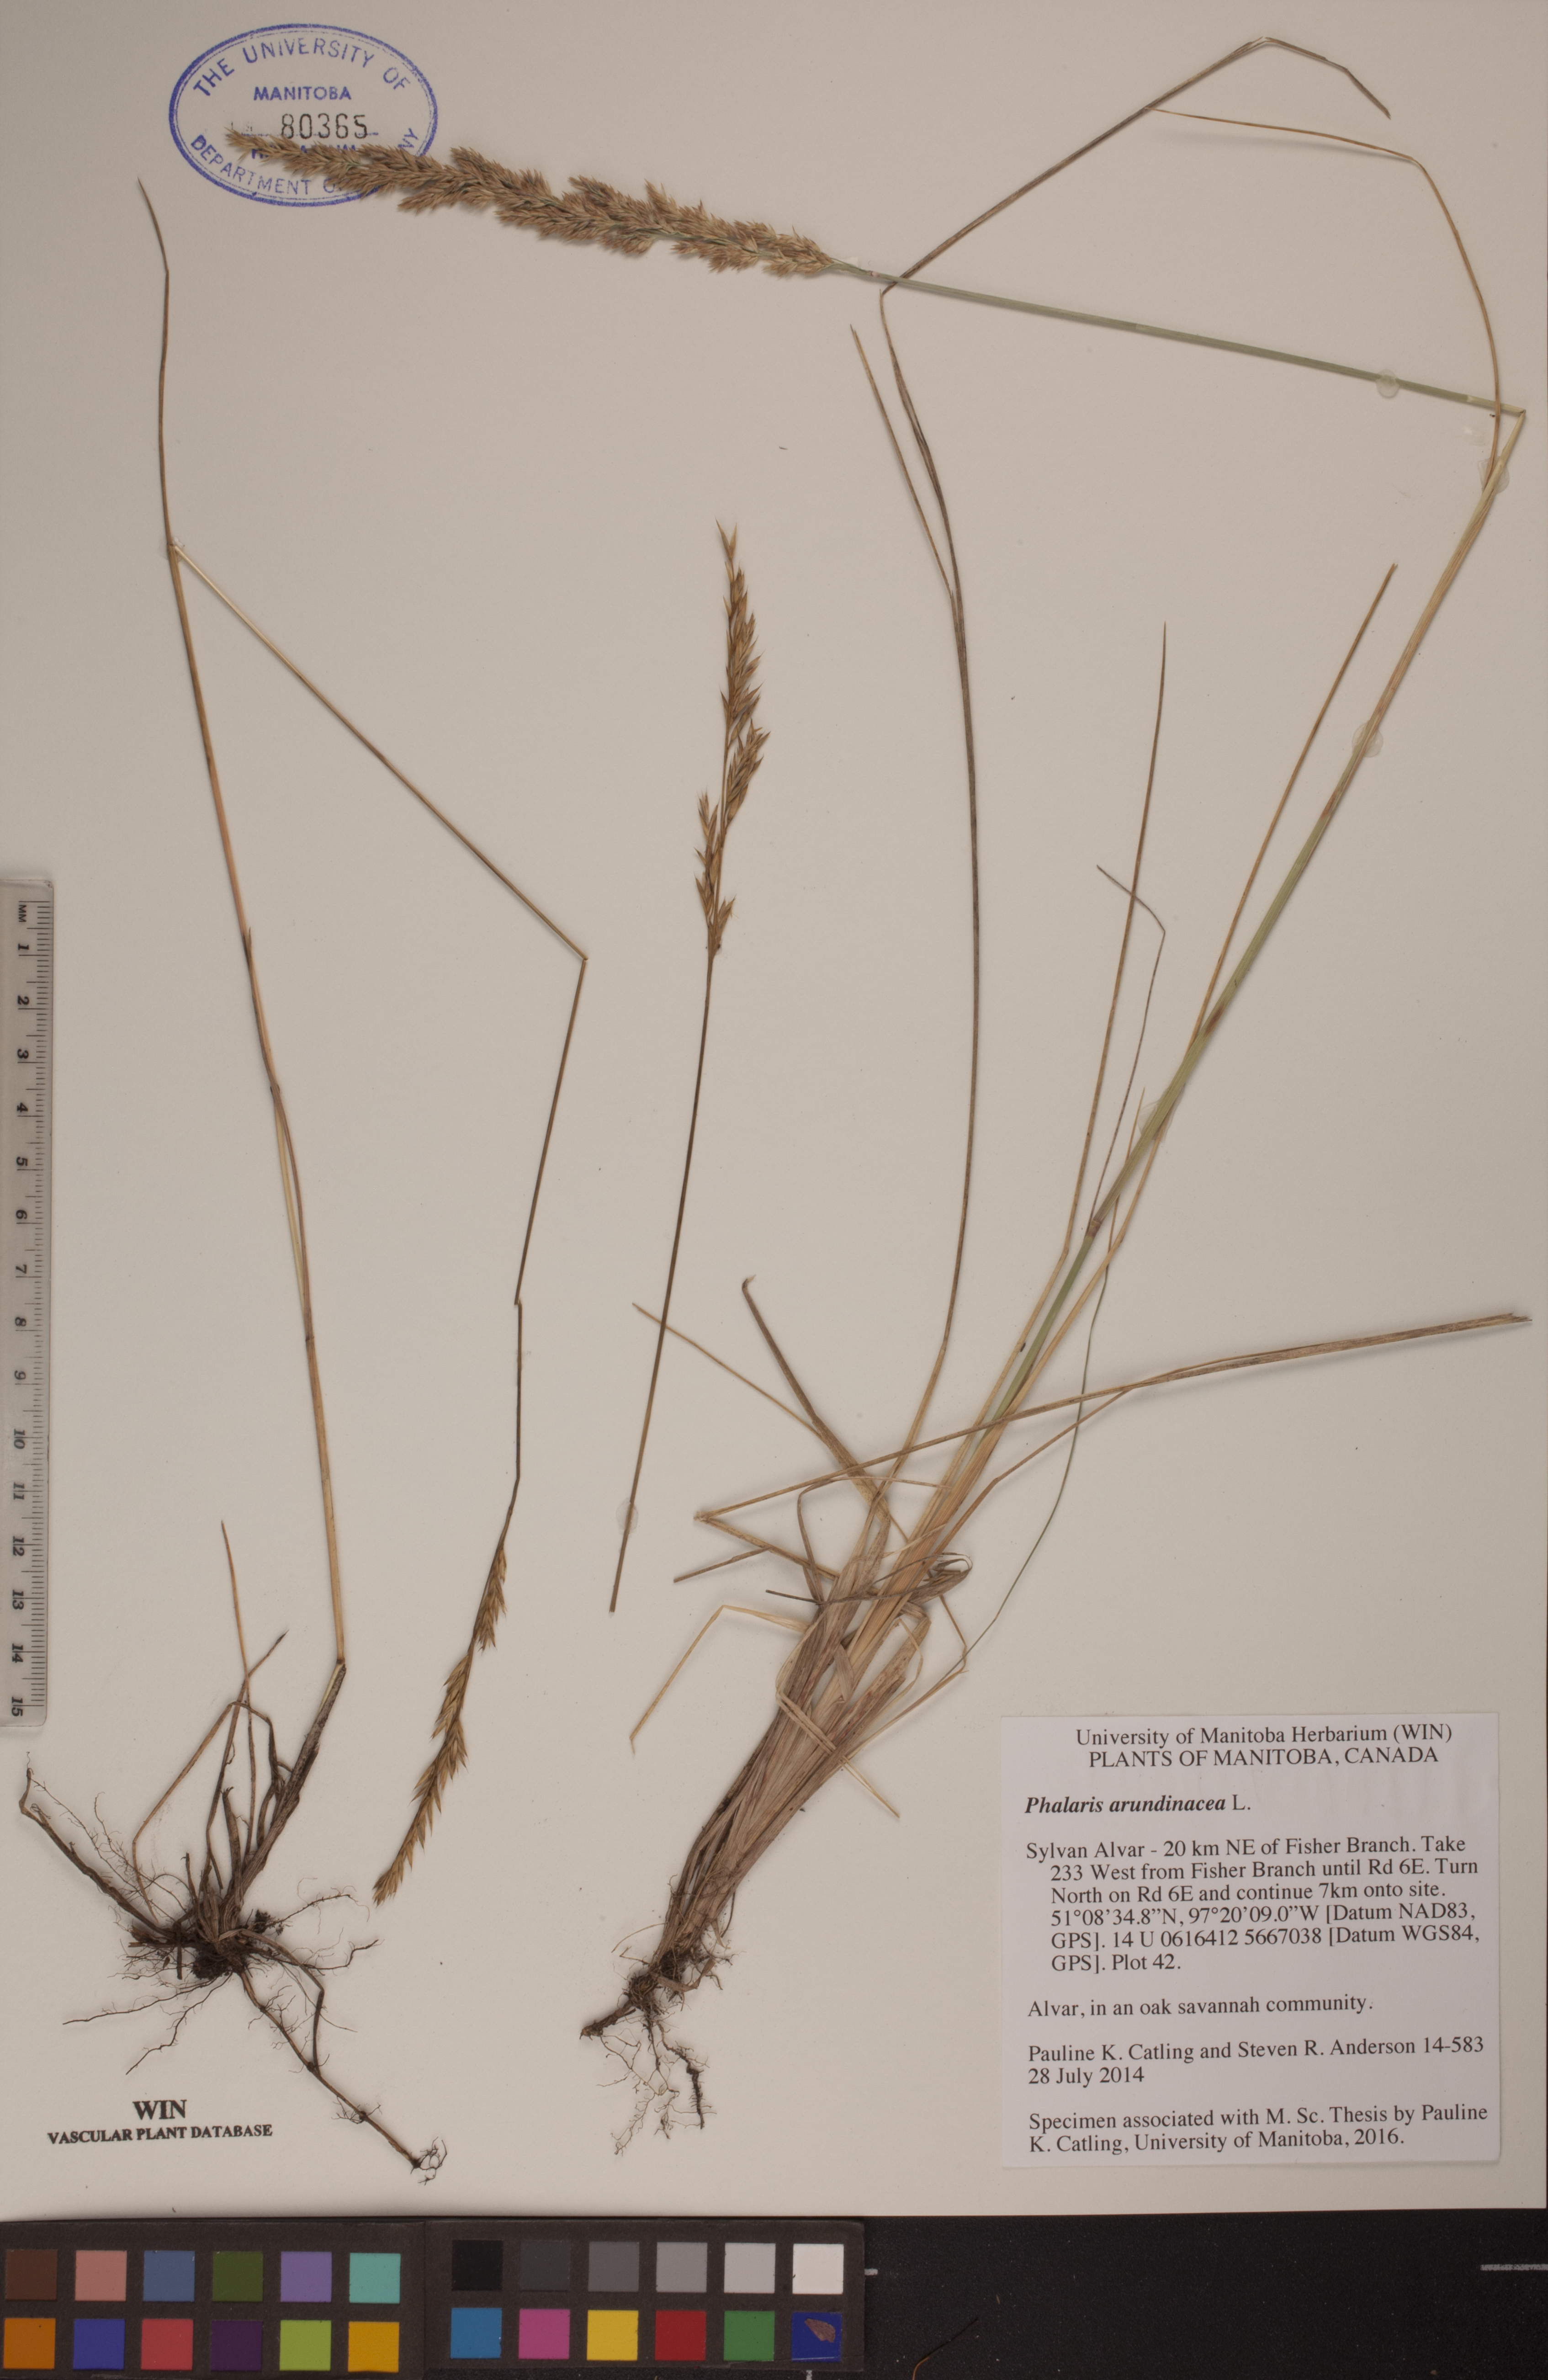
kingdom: Plantae
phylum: Tracheophyta
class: Liliopsida
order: Poales
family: Poaceae
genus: Phalaris
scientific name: Phalaris arundinacea
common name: Reed canary-grass
